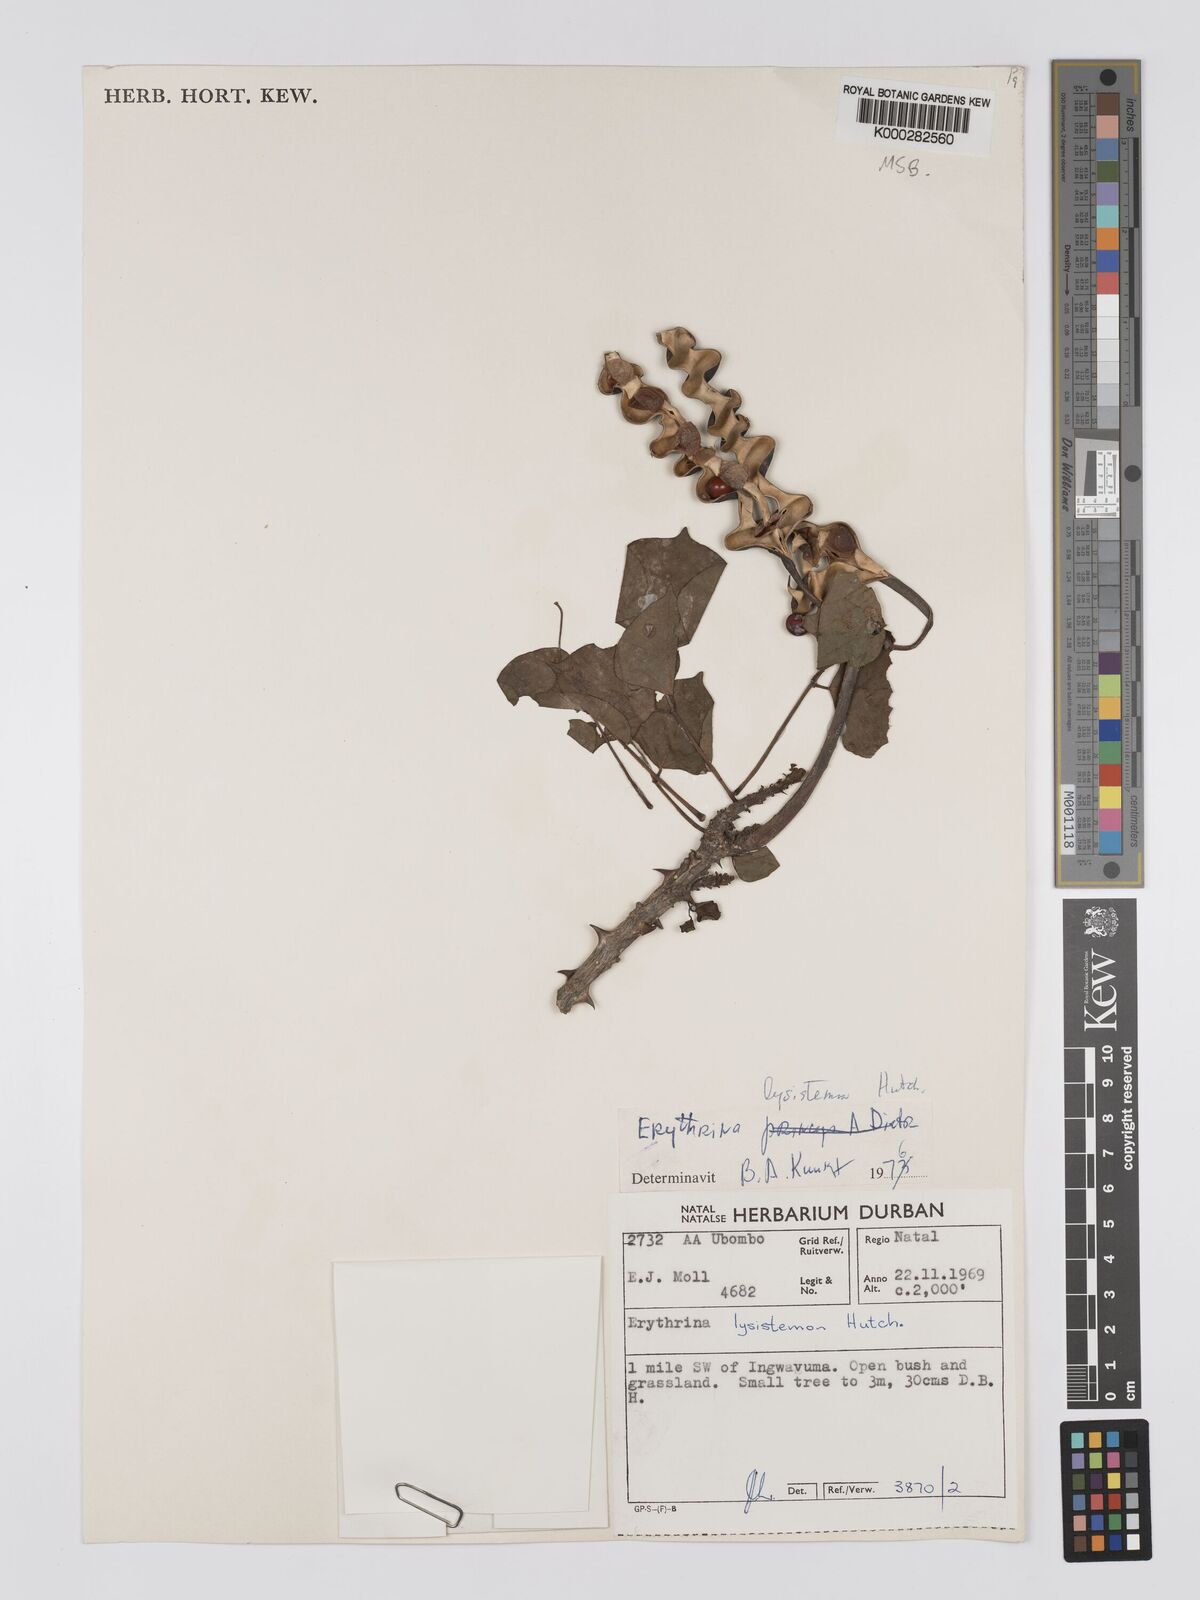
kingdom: Plantae
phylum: Tracheophyta
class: Magnoliopsida
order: Fabales
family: Fabaceae
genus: Erythrina
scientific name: Erythrina lysistemon
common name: Common coral tree
